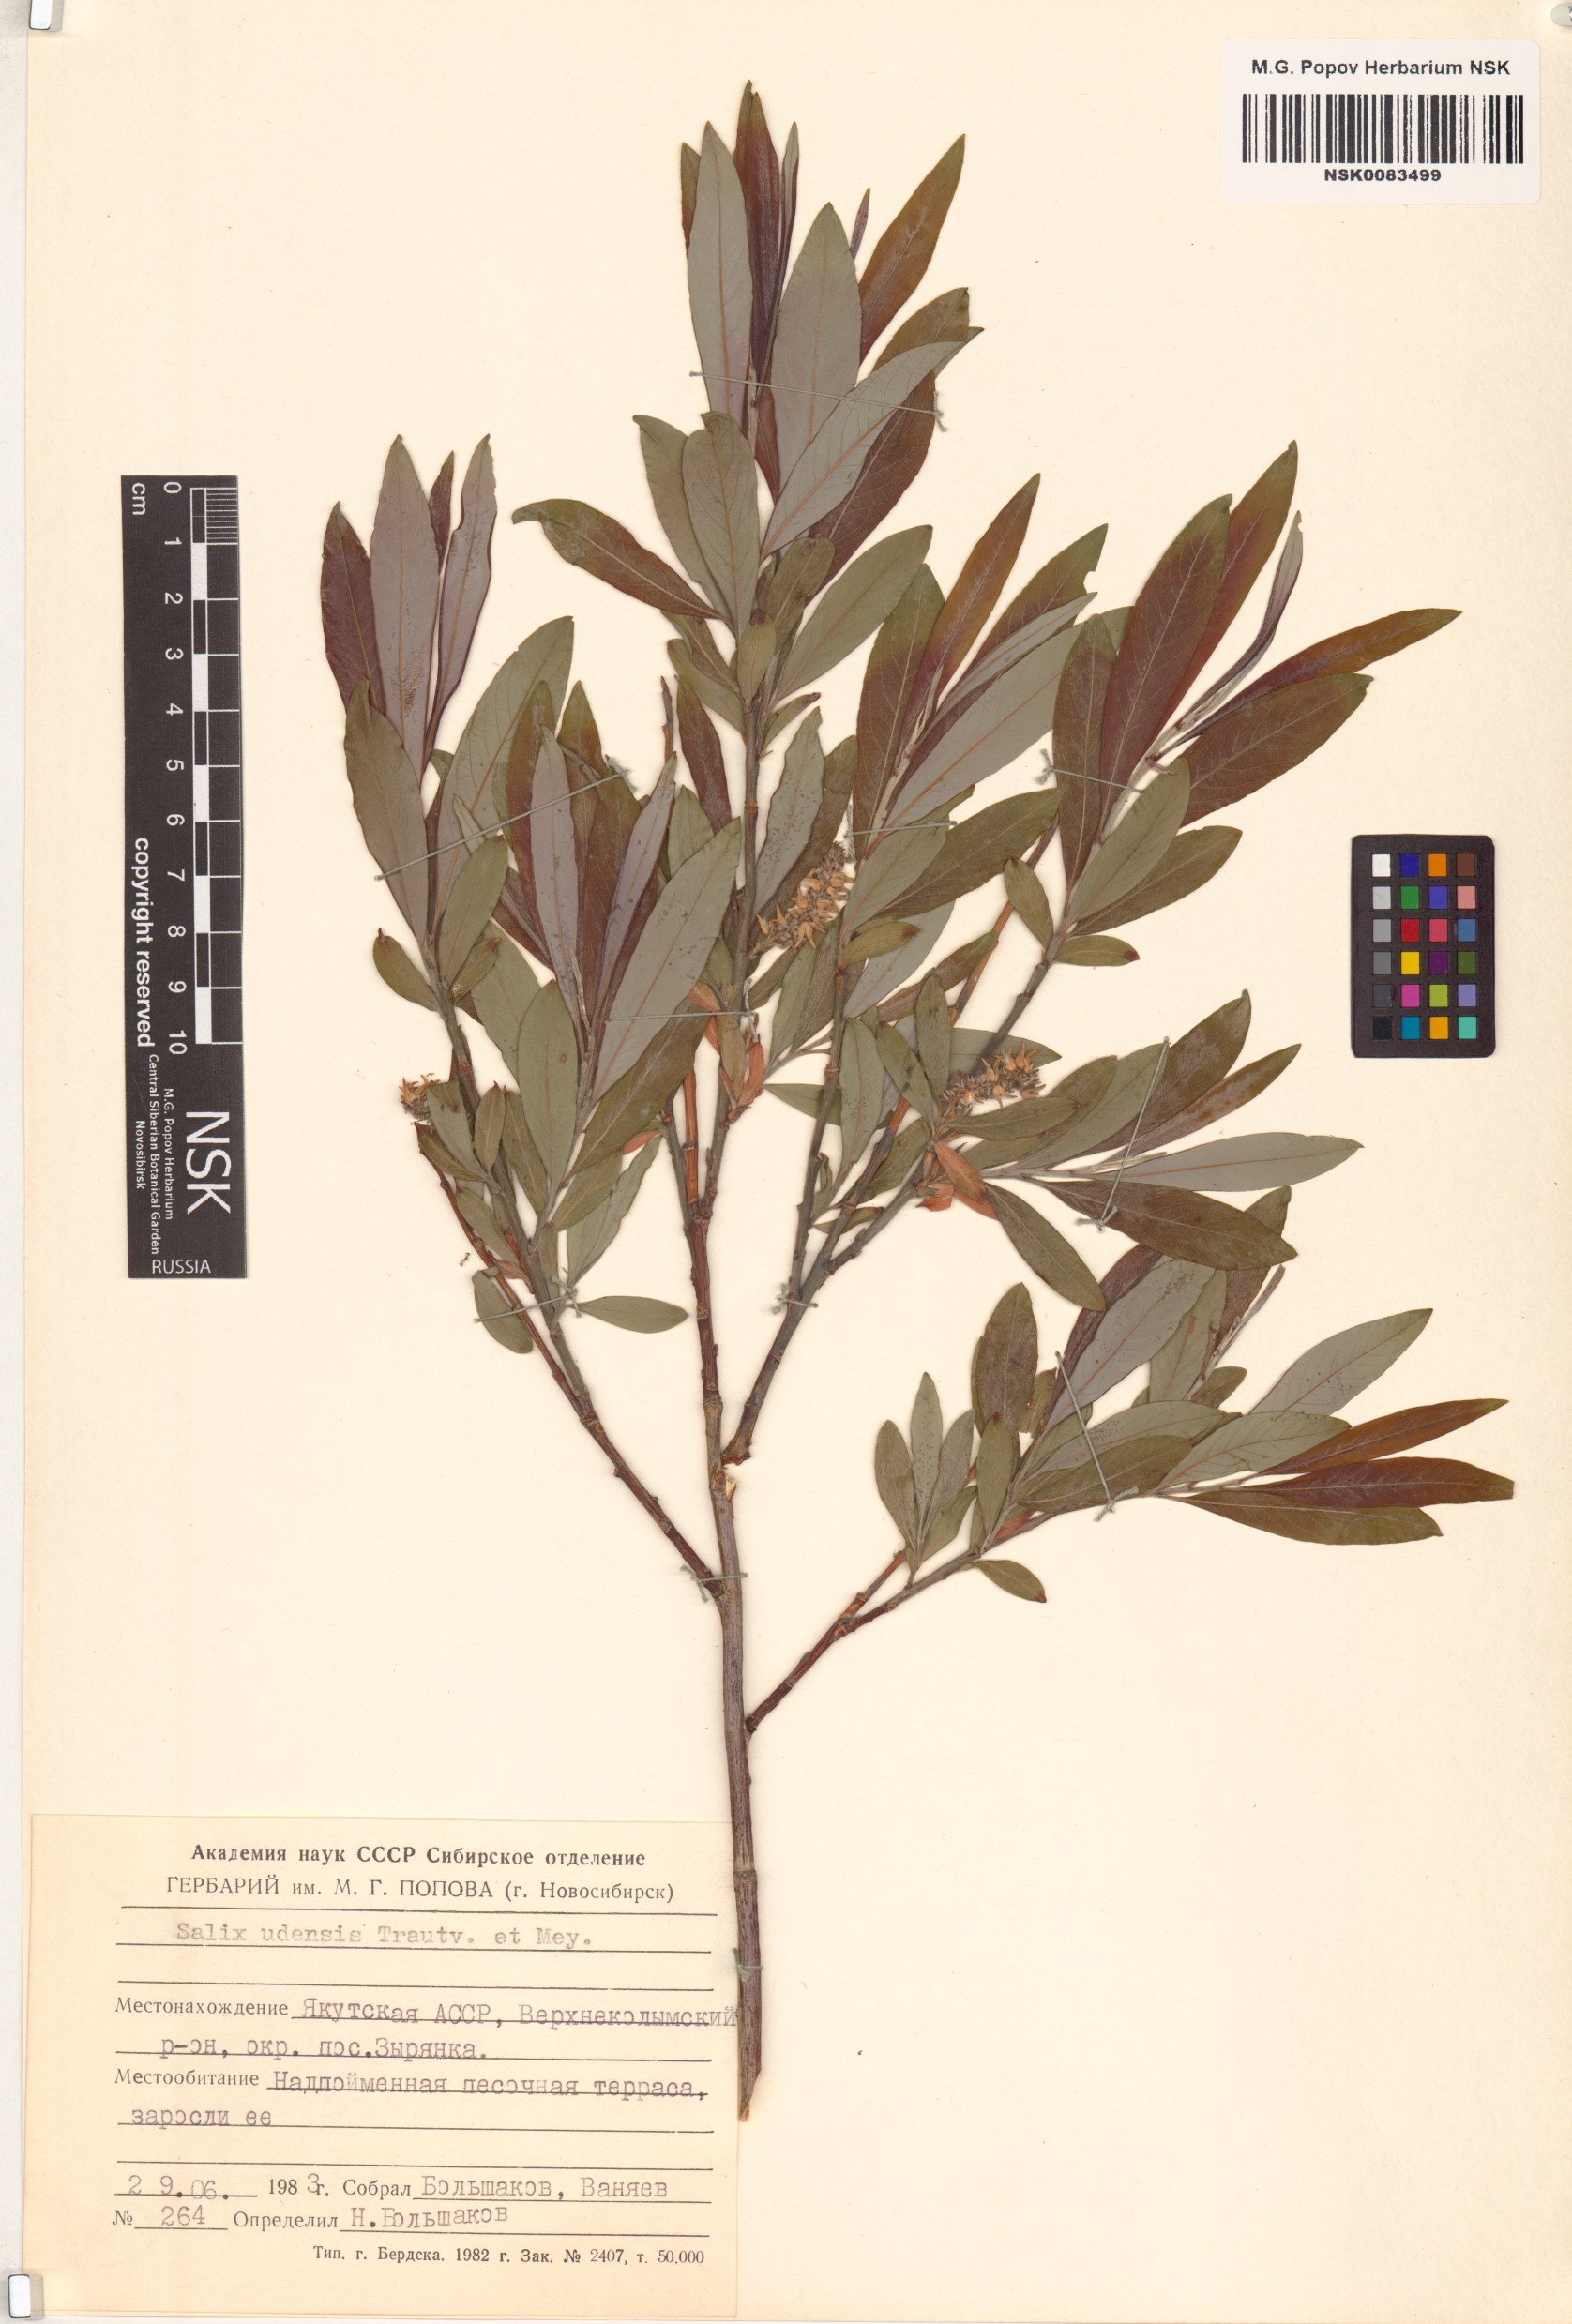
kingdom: Plantae
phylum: Tracheophyta
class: Magnoliopsida
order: Malpighiales
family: Salicaceae
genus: Salix
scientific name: Salix udensis
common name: Sachalin willow
